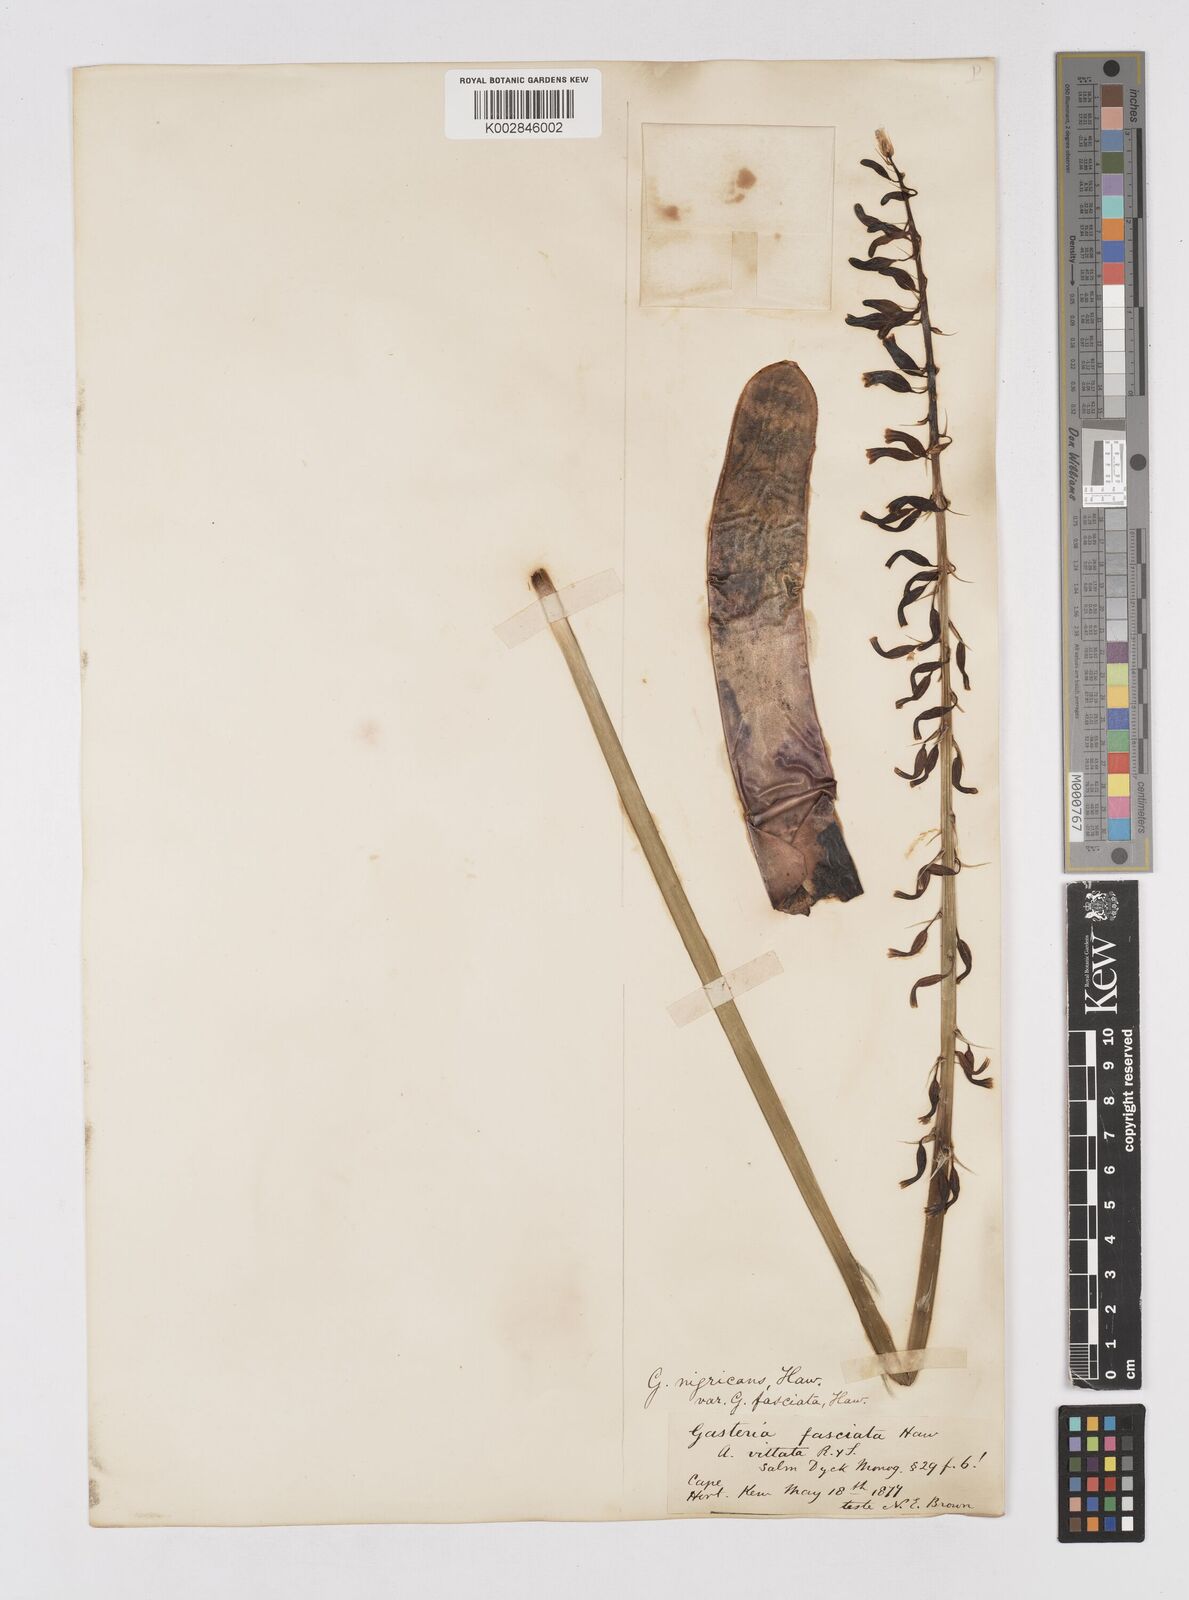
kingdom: Plantae
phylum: Tracheophyta
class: Liliopsida
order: Asparagales
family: Asphodelaceae
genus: Gasteria
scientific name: Gasteria obliqua
